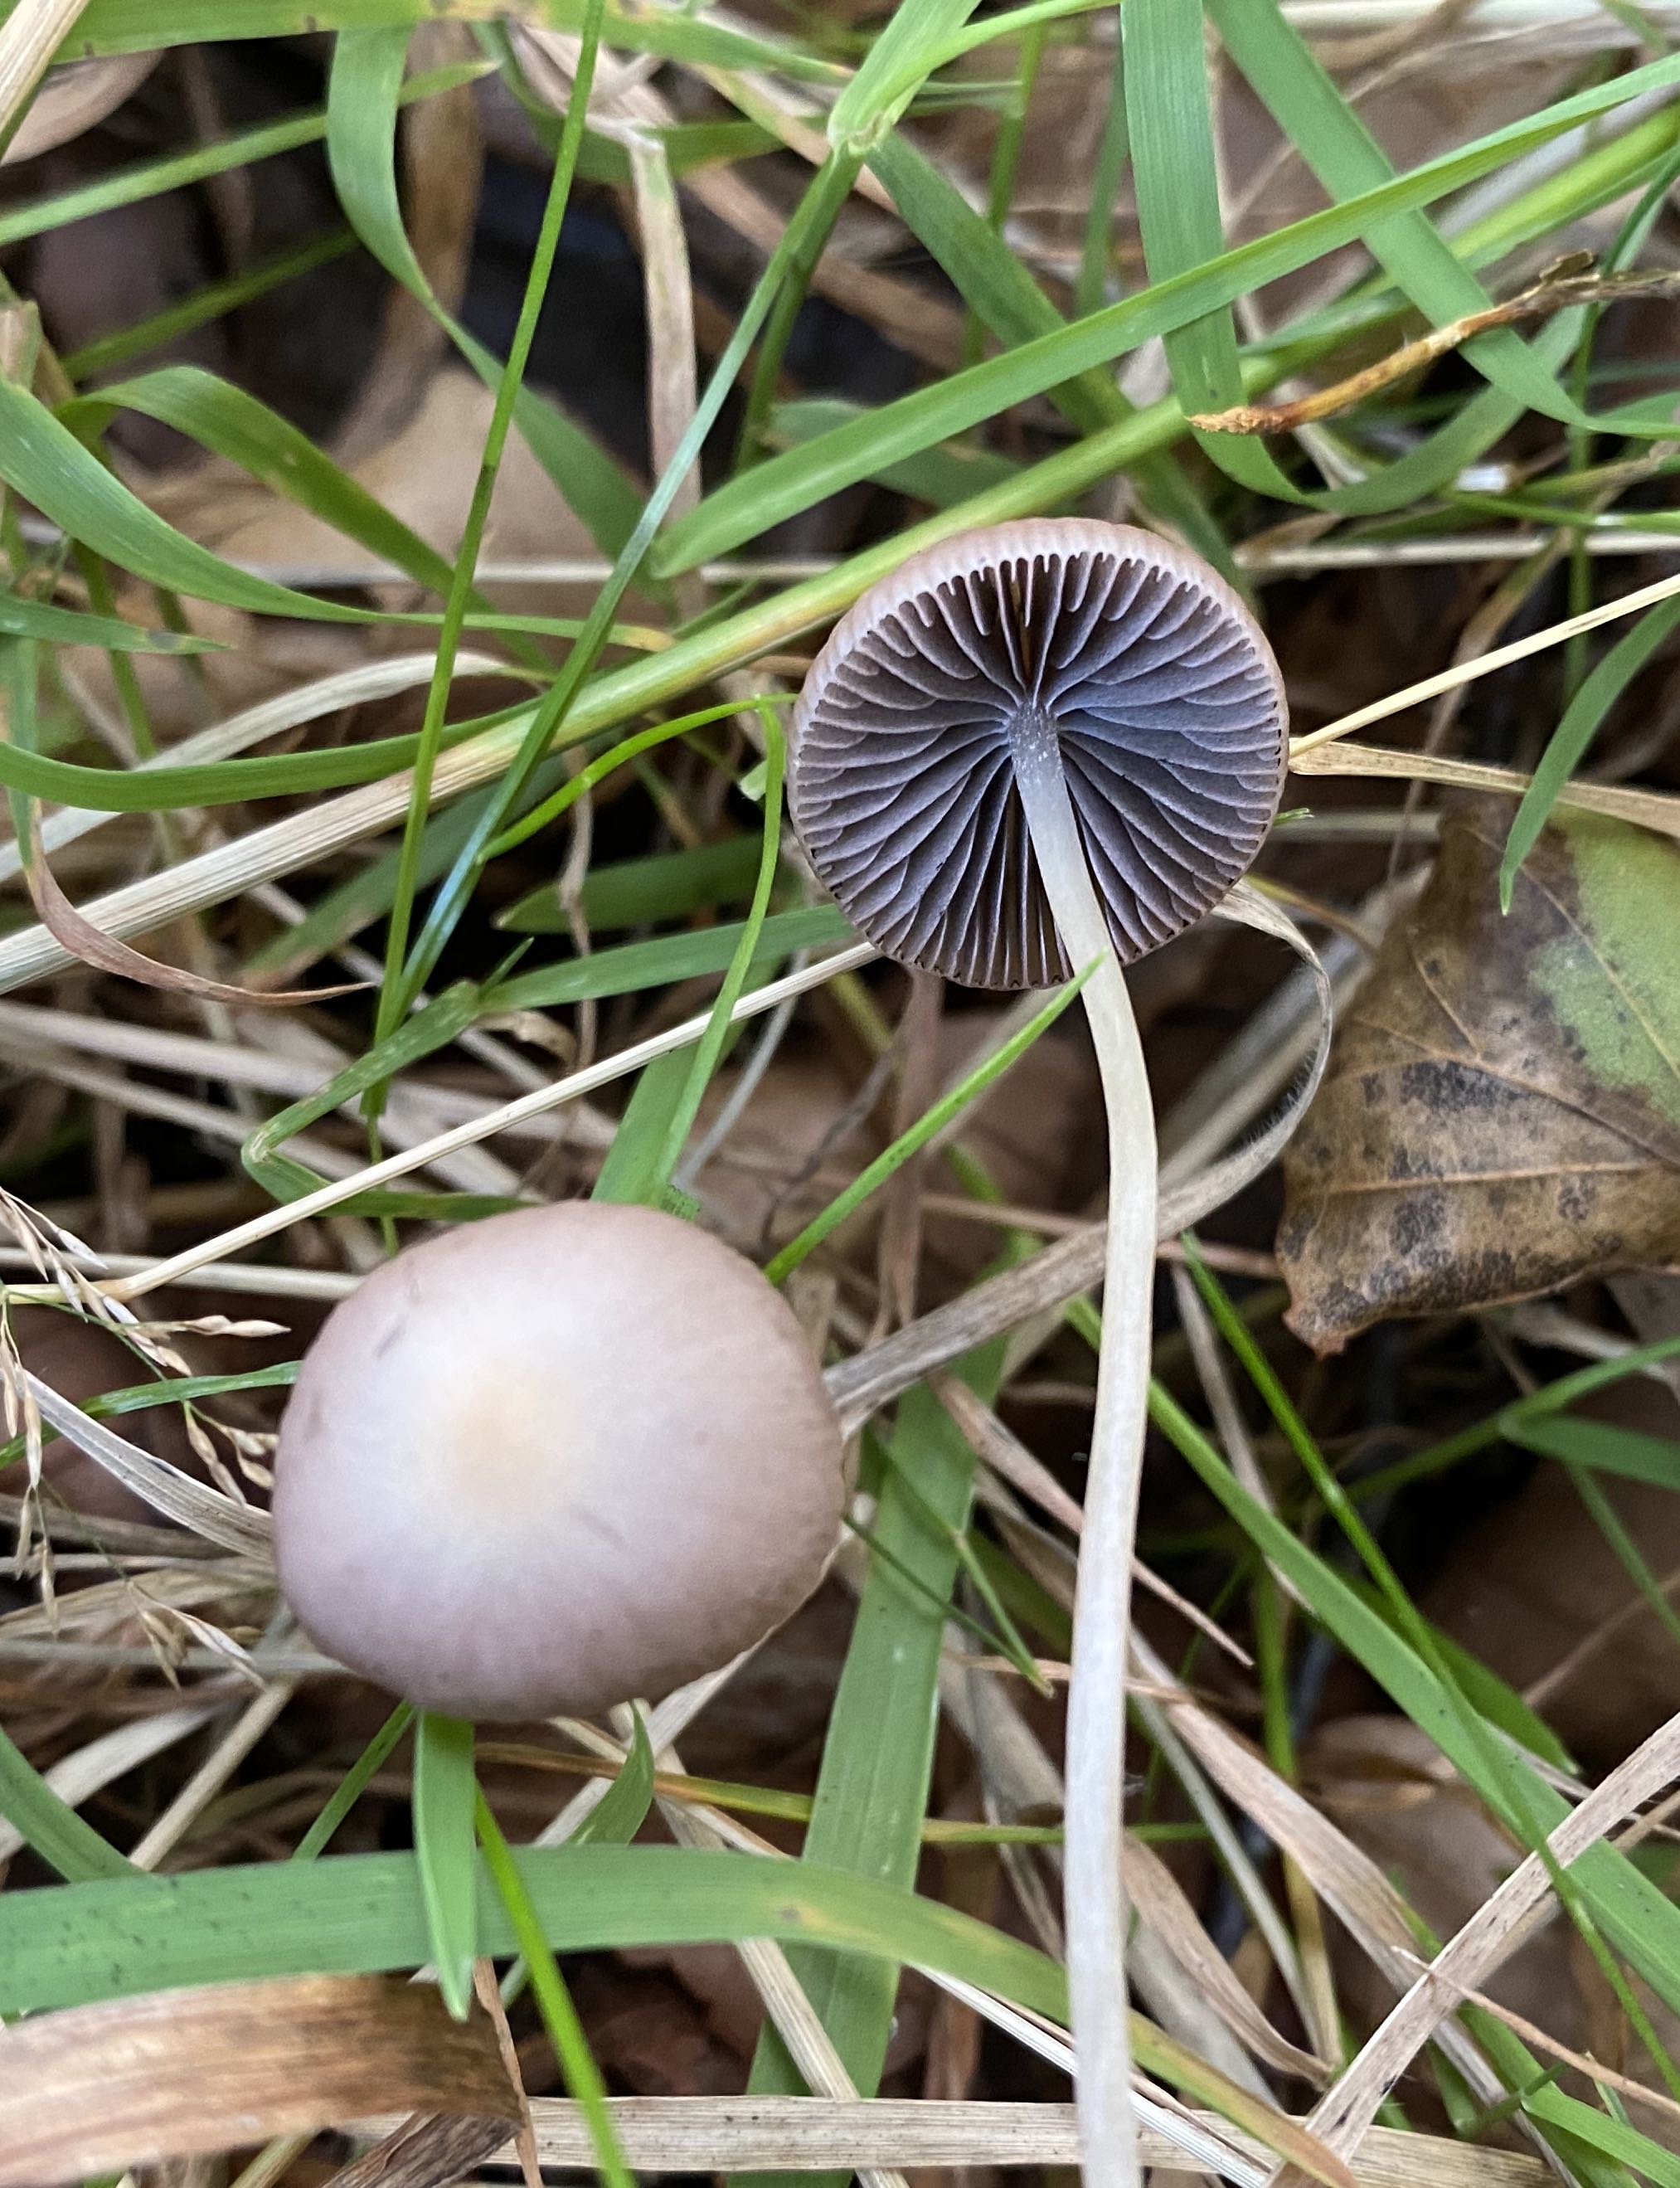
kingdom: Fungi
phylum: Basidiomycota
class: Agaricomycetes
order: Agaricales
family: Psathyrellaceae
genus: Psathyrella
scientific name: Psathyrella
